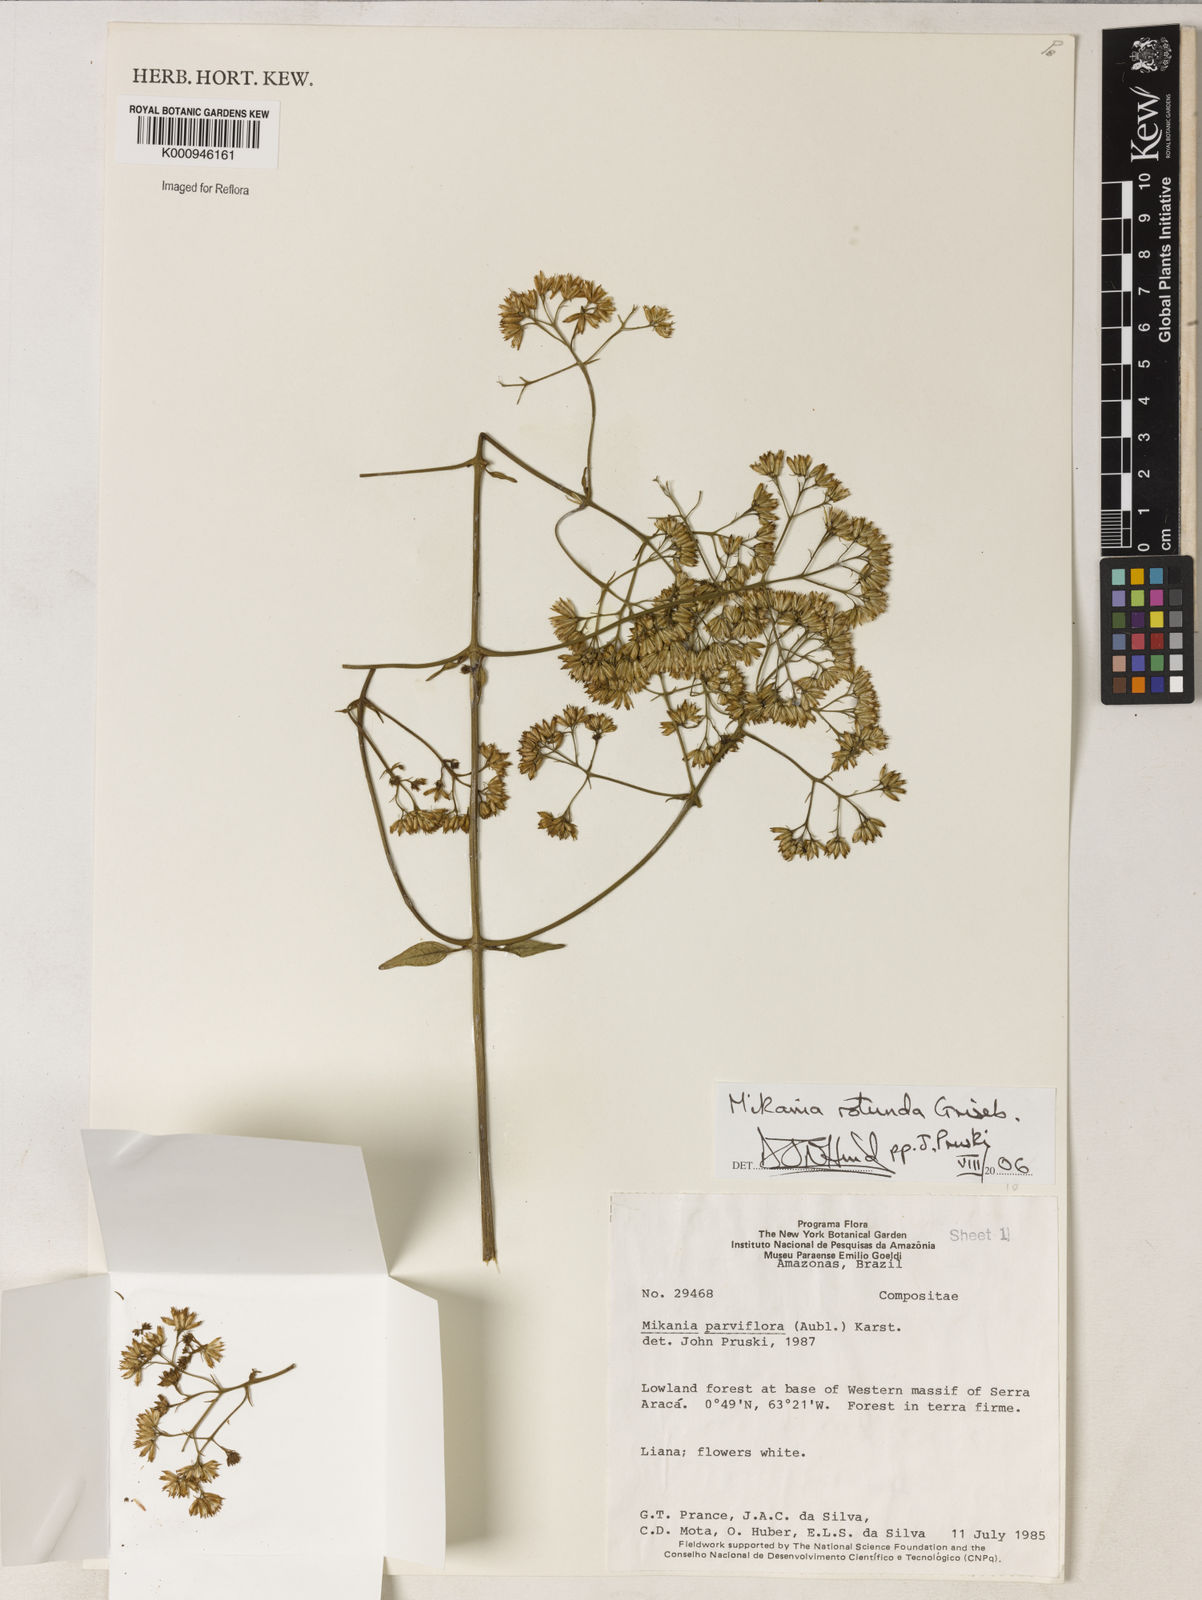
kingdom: Plantae
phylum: Tracheophyta
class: Magnoliopsida
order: Asterales
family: Asteraceae
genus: Mikania
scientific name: Mikania psilostachya
